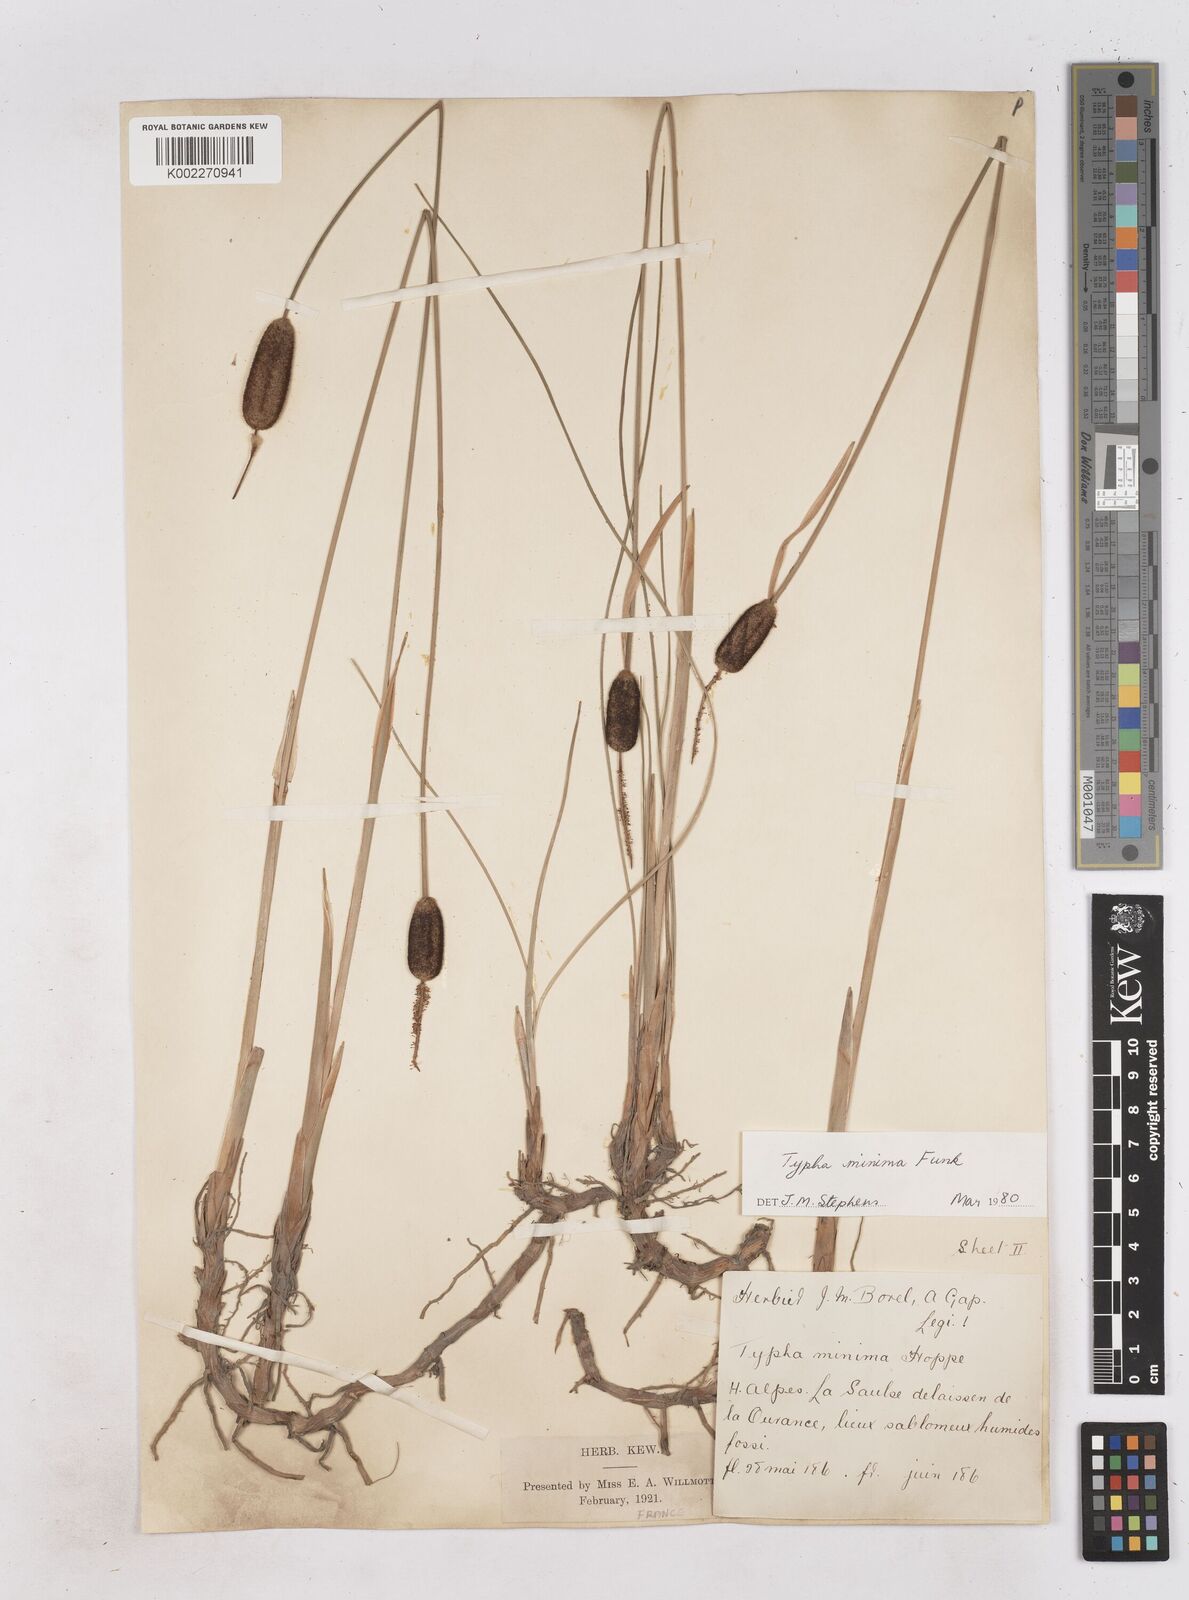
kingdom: Plantae
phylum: Tracheophyta
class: Liliopsida
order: Poales
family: Typhaceae
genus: Typha
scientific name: Typha
